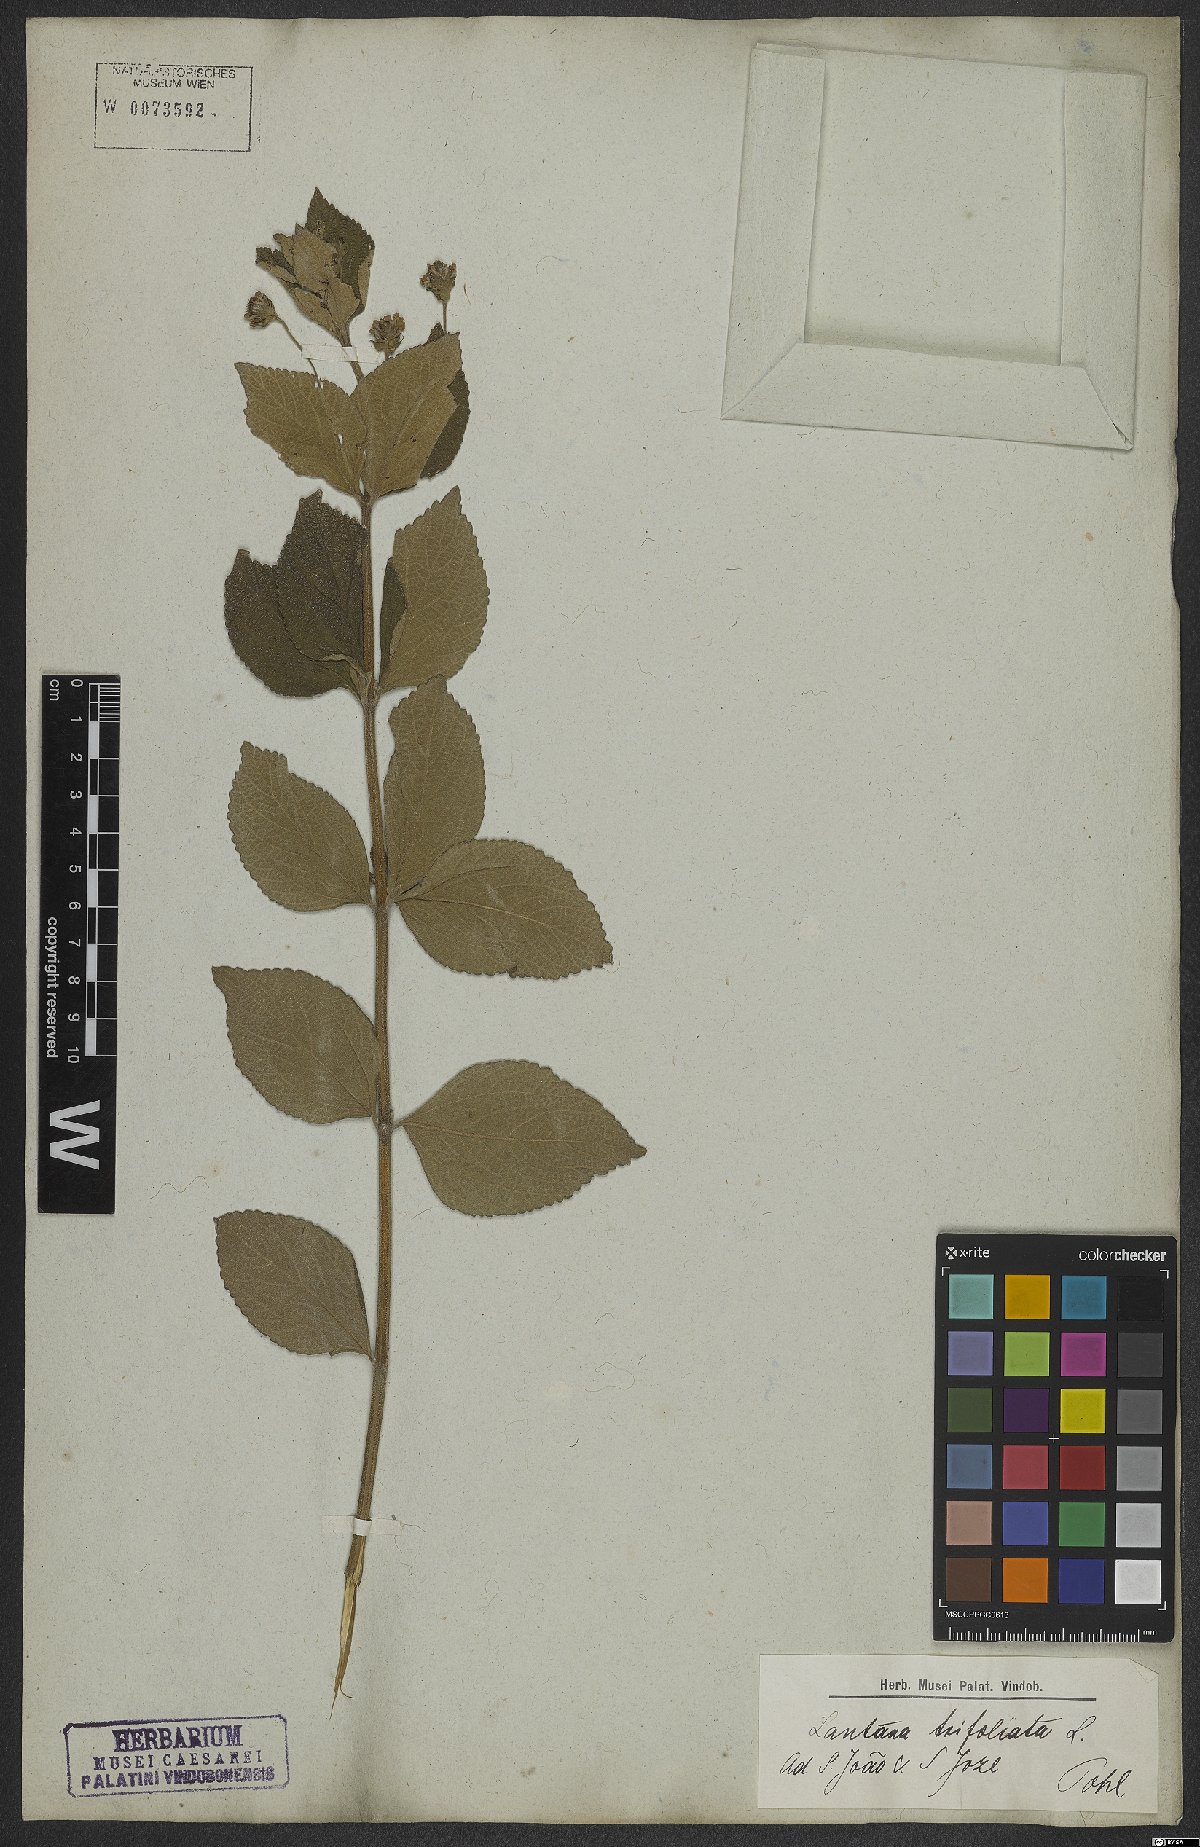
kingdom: Plantae
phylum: Tracheophyta
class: Magnoliopsida
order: Lamiales
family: Verbenaceae
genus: Lantana
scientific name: Lantana trifolia
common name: Sweet-sage
